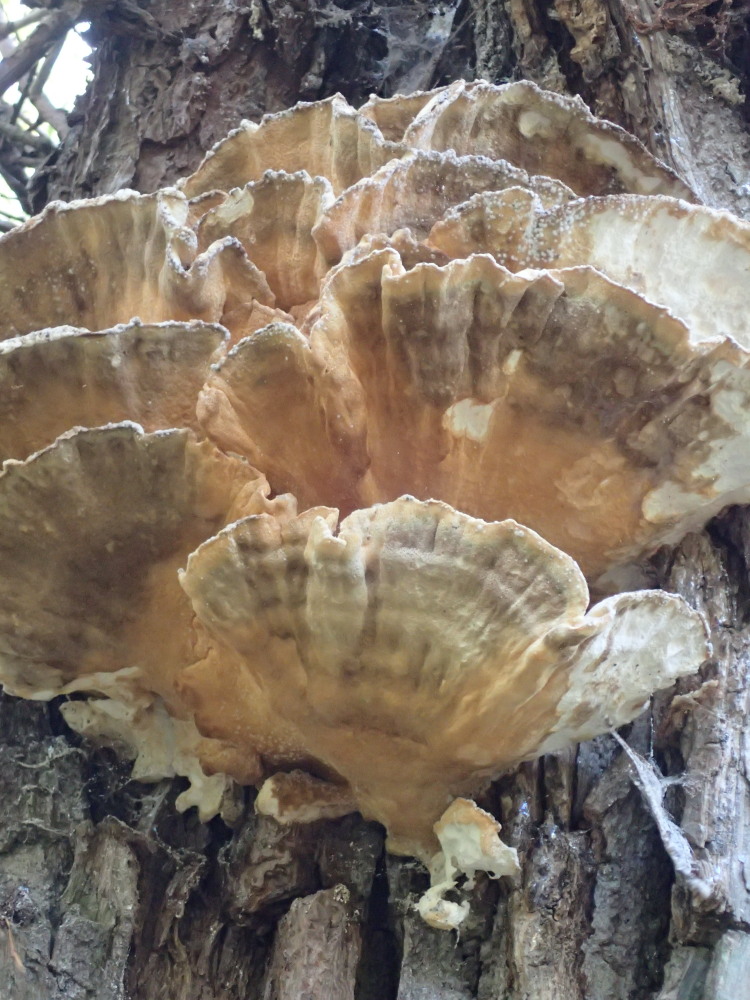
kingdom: Fungi
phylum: Basidiomycota
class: Agaricomycetes
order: Polyporales
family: Laetiporaceae
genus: Laetiporus
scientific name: Laetiporus sulphureus
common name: svovlporesvamp
